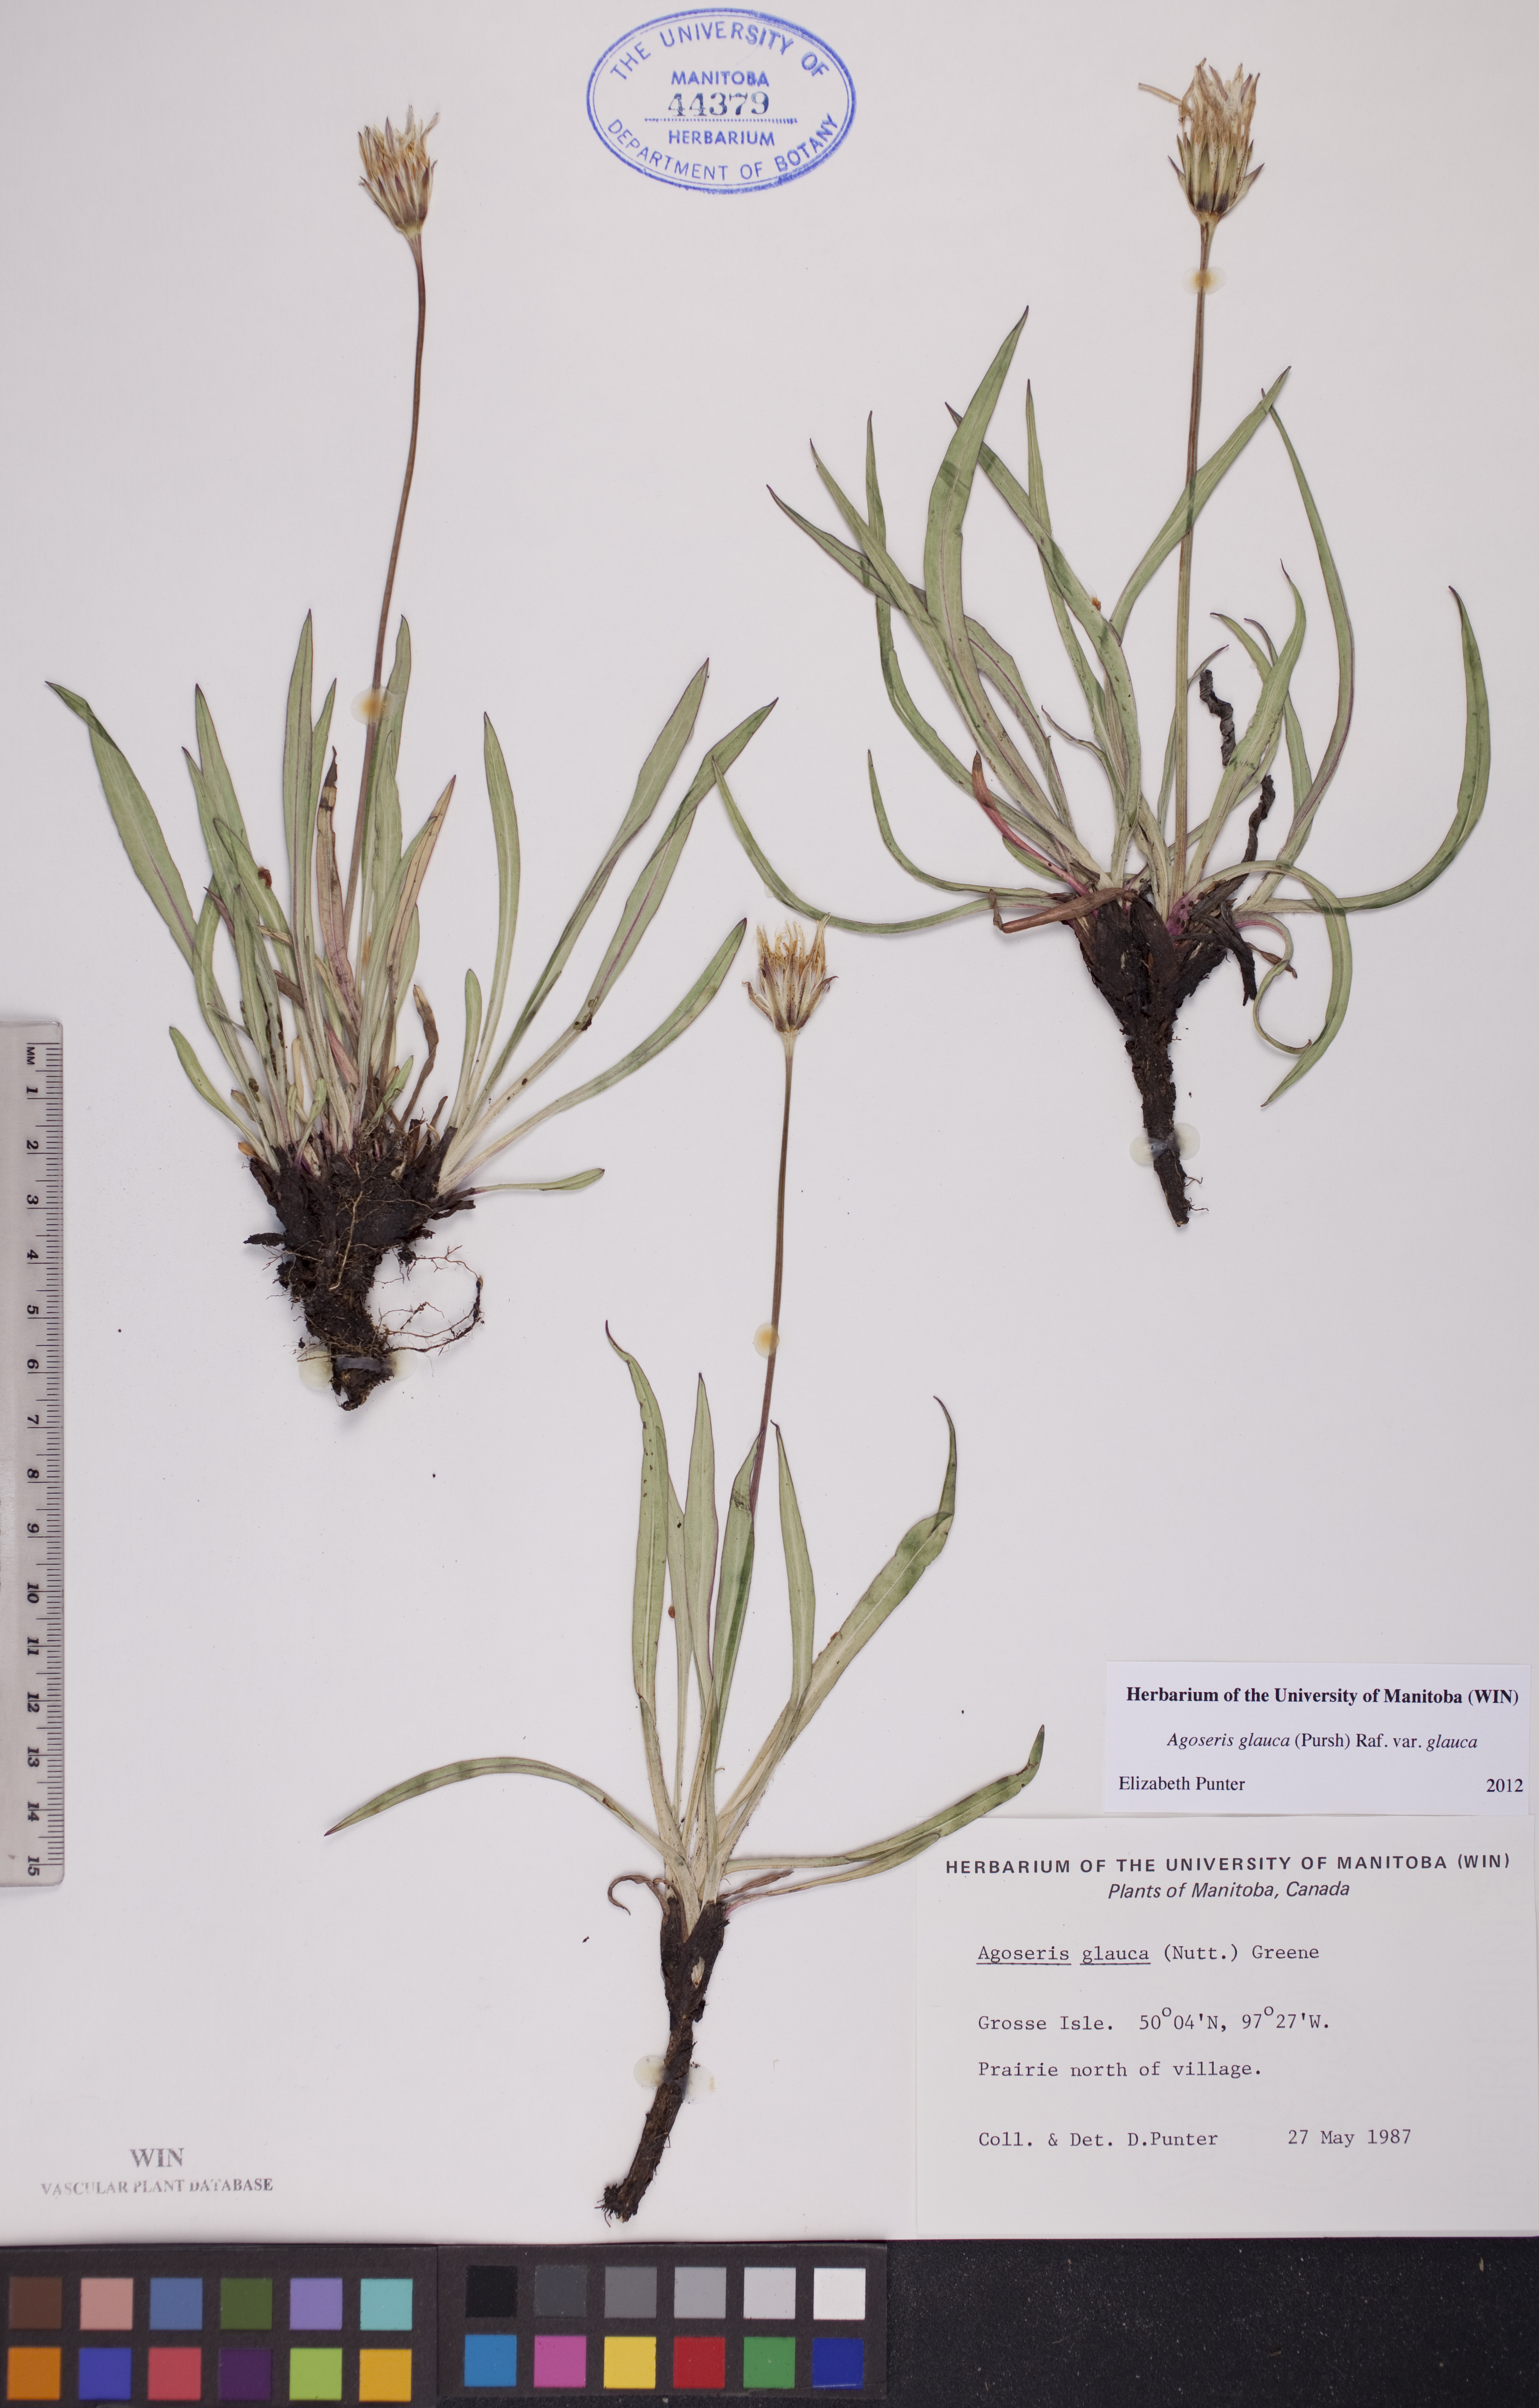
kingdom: Plantae
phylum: Tracheophyta
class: Magnoliopsida
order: Asterales
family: Asteraceae
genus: Agoseris
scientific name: Agoseris glauca
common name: Prairie agoseris
